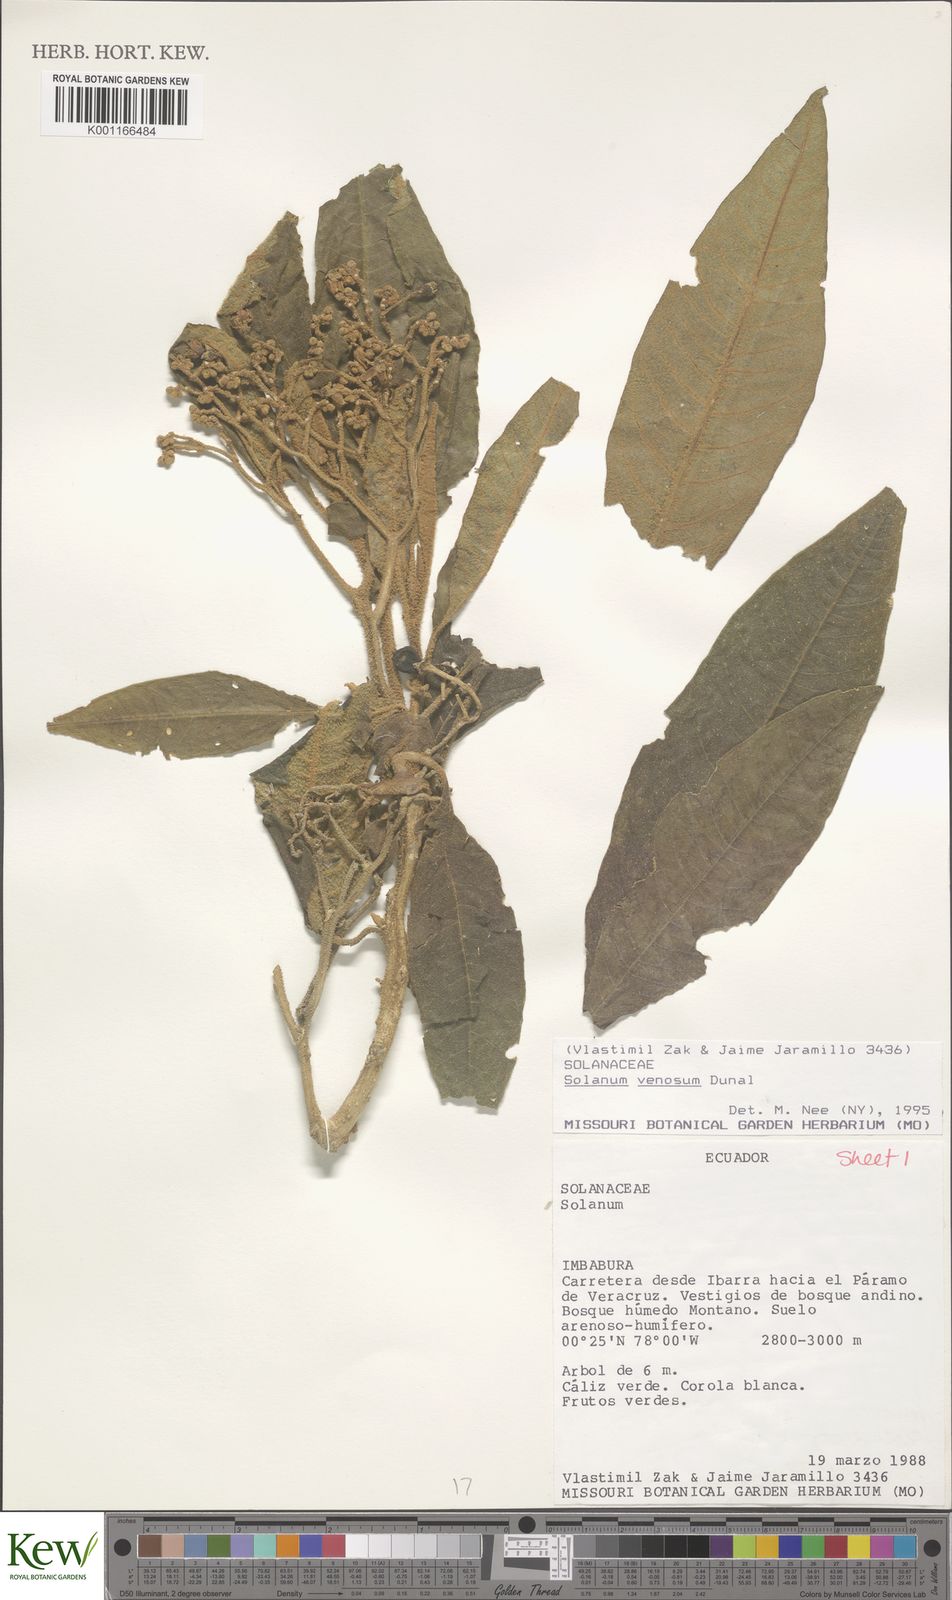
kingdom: Plantae
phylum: Tracheophyta
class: Magnoliopsida
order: Solanales
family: Solanaceae
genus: Solanum
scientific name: Solanum venosum
